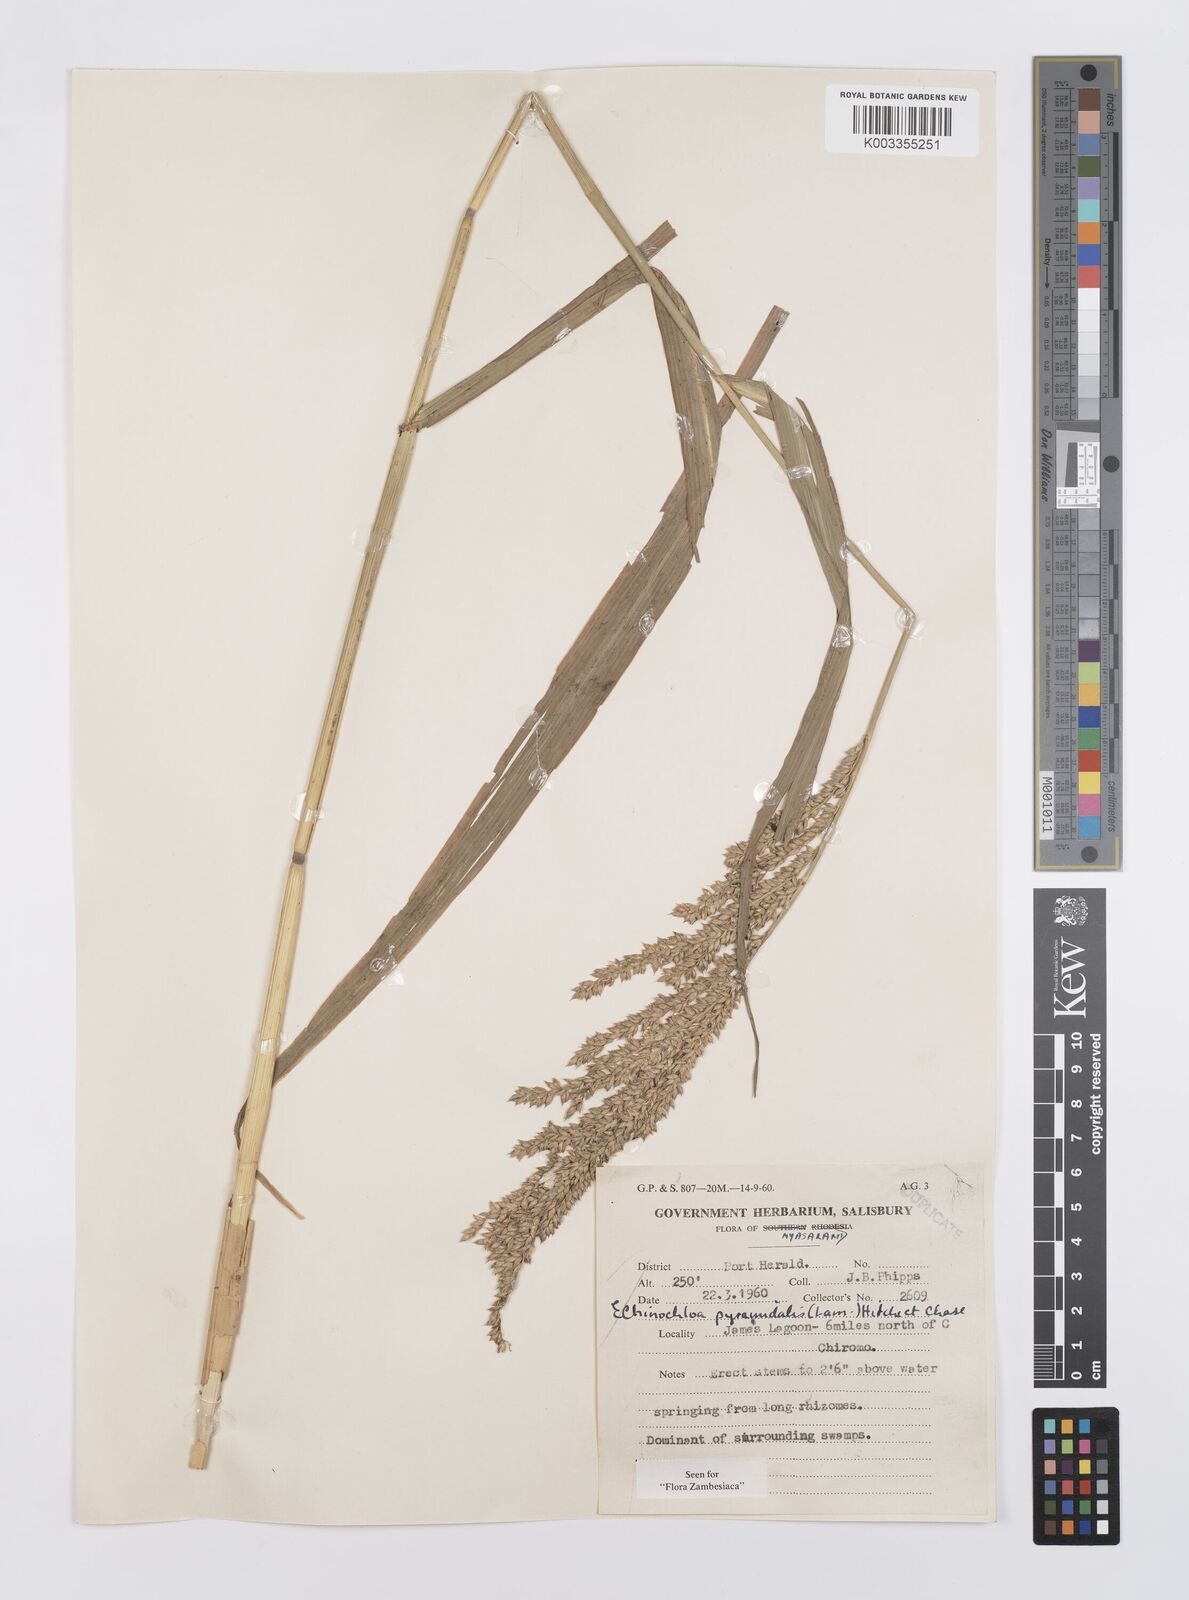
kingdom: Plantae
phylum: Tracheophyta
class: Liliopsida
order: Poales
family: Poaceae
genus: Echinochloa
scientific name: Echinochloa pyramidalis
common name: Antelope grass
